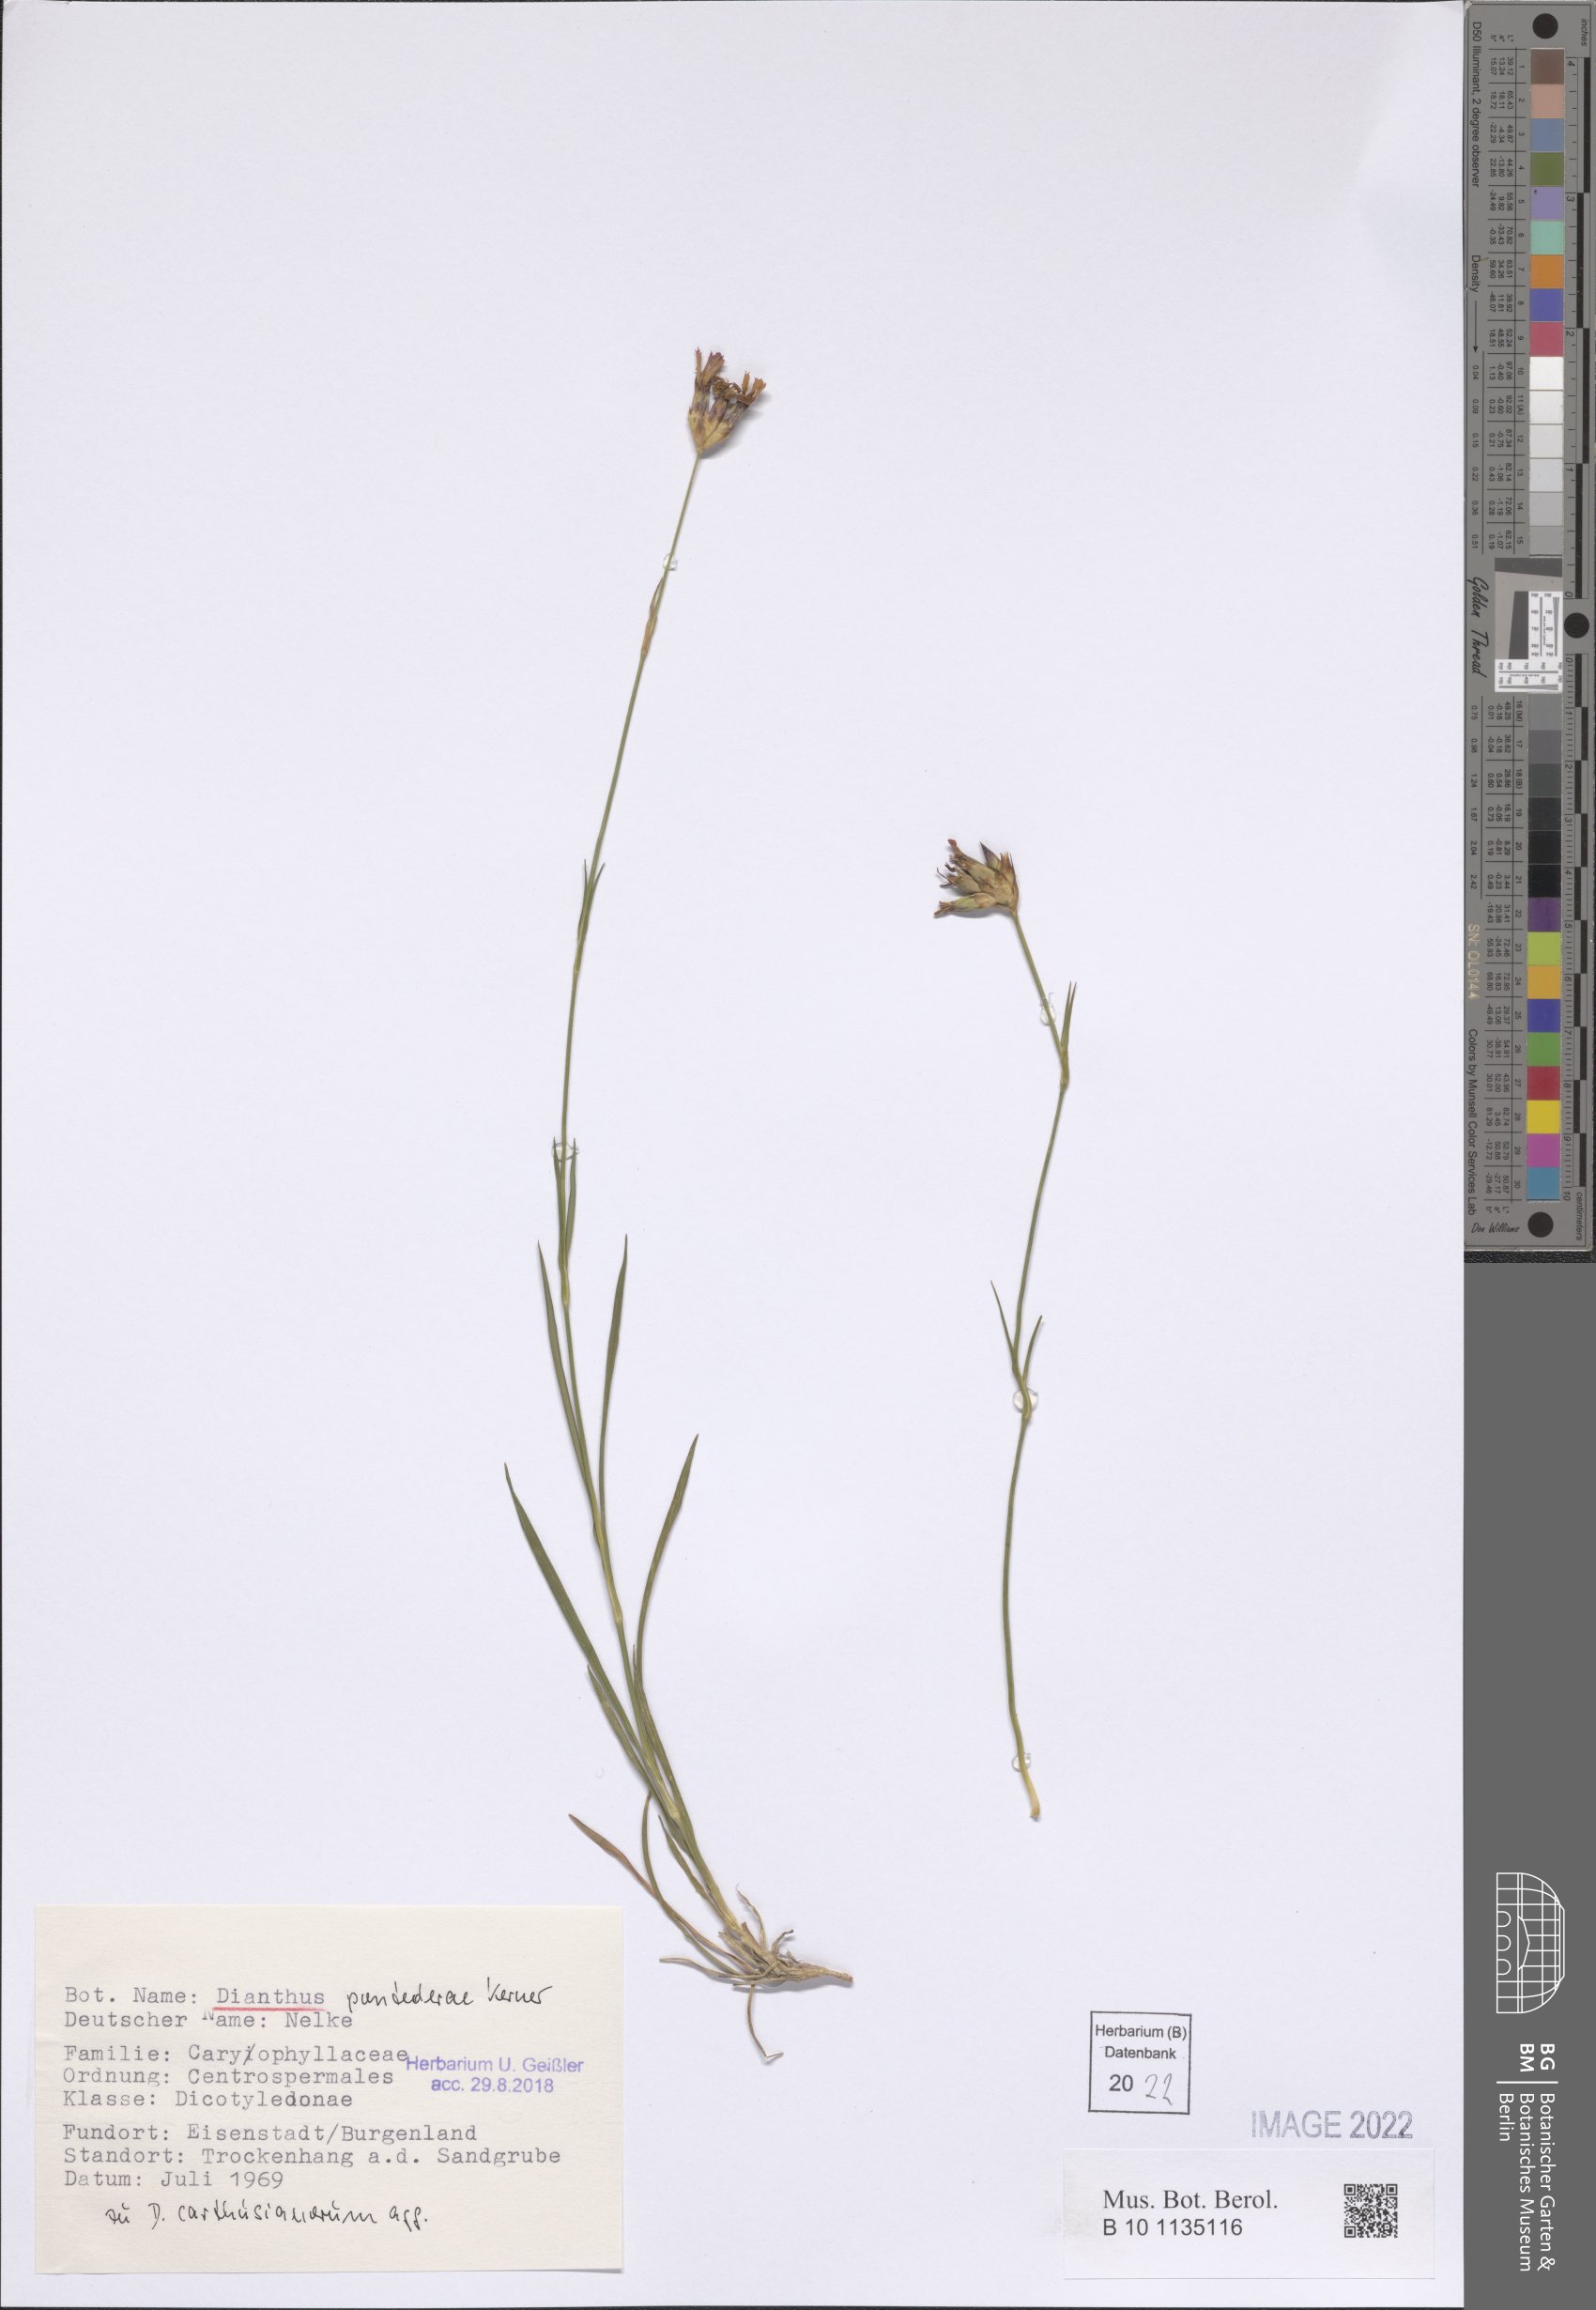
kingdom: Plantae
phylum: Tracheophyta
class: Magnoliopsida
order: Caryophyllales
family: Caryophyllaceae
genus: Dianthus
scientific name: Dianthus pontederae
